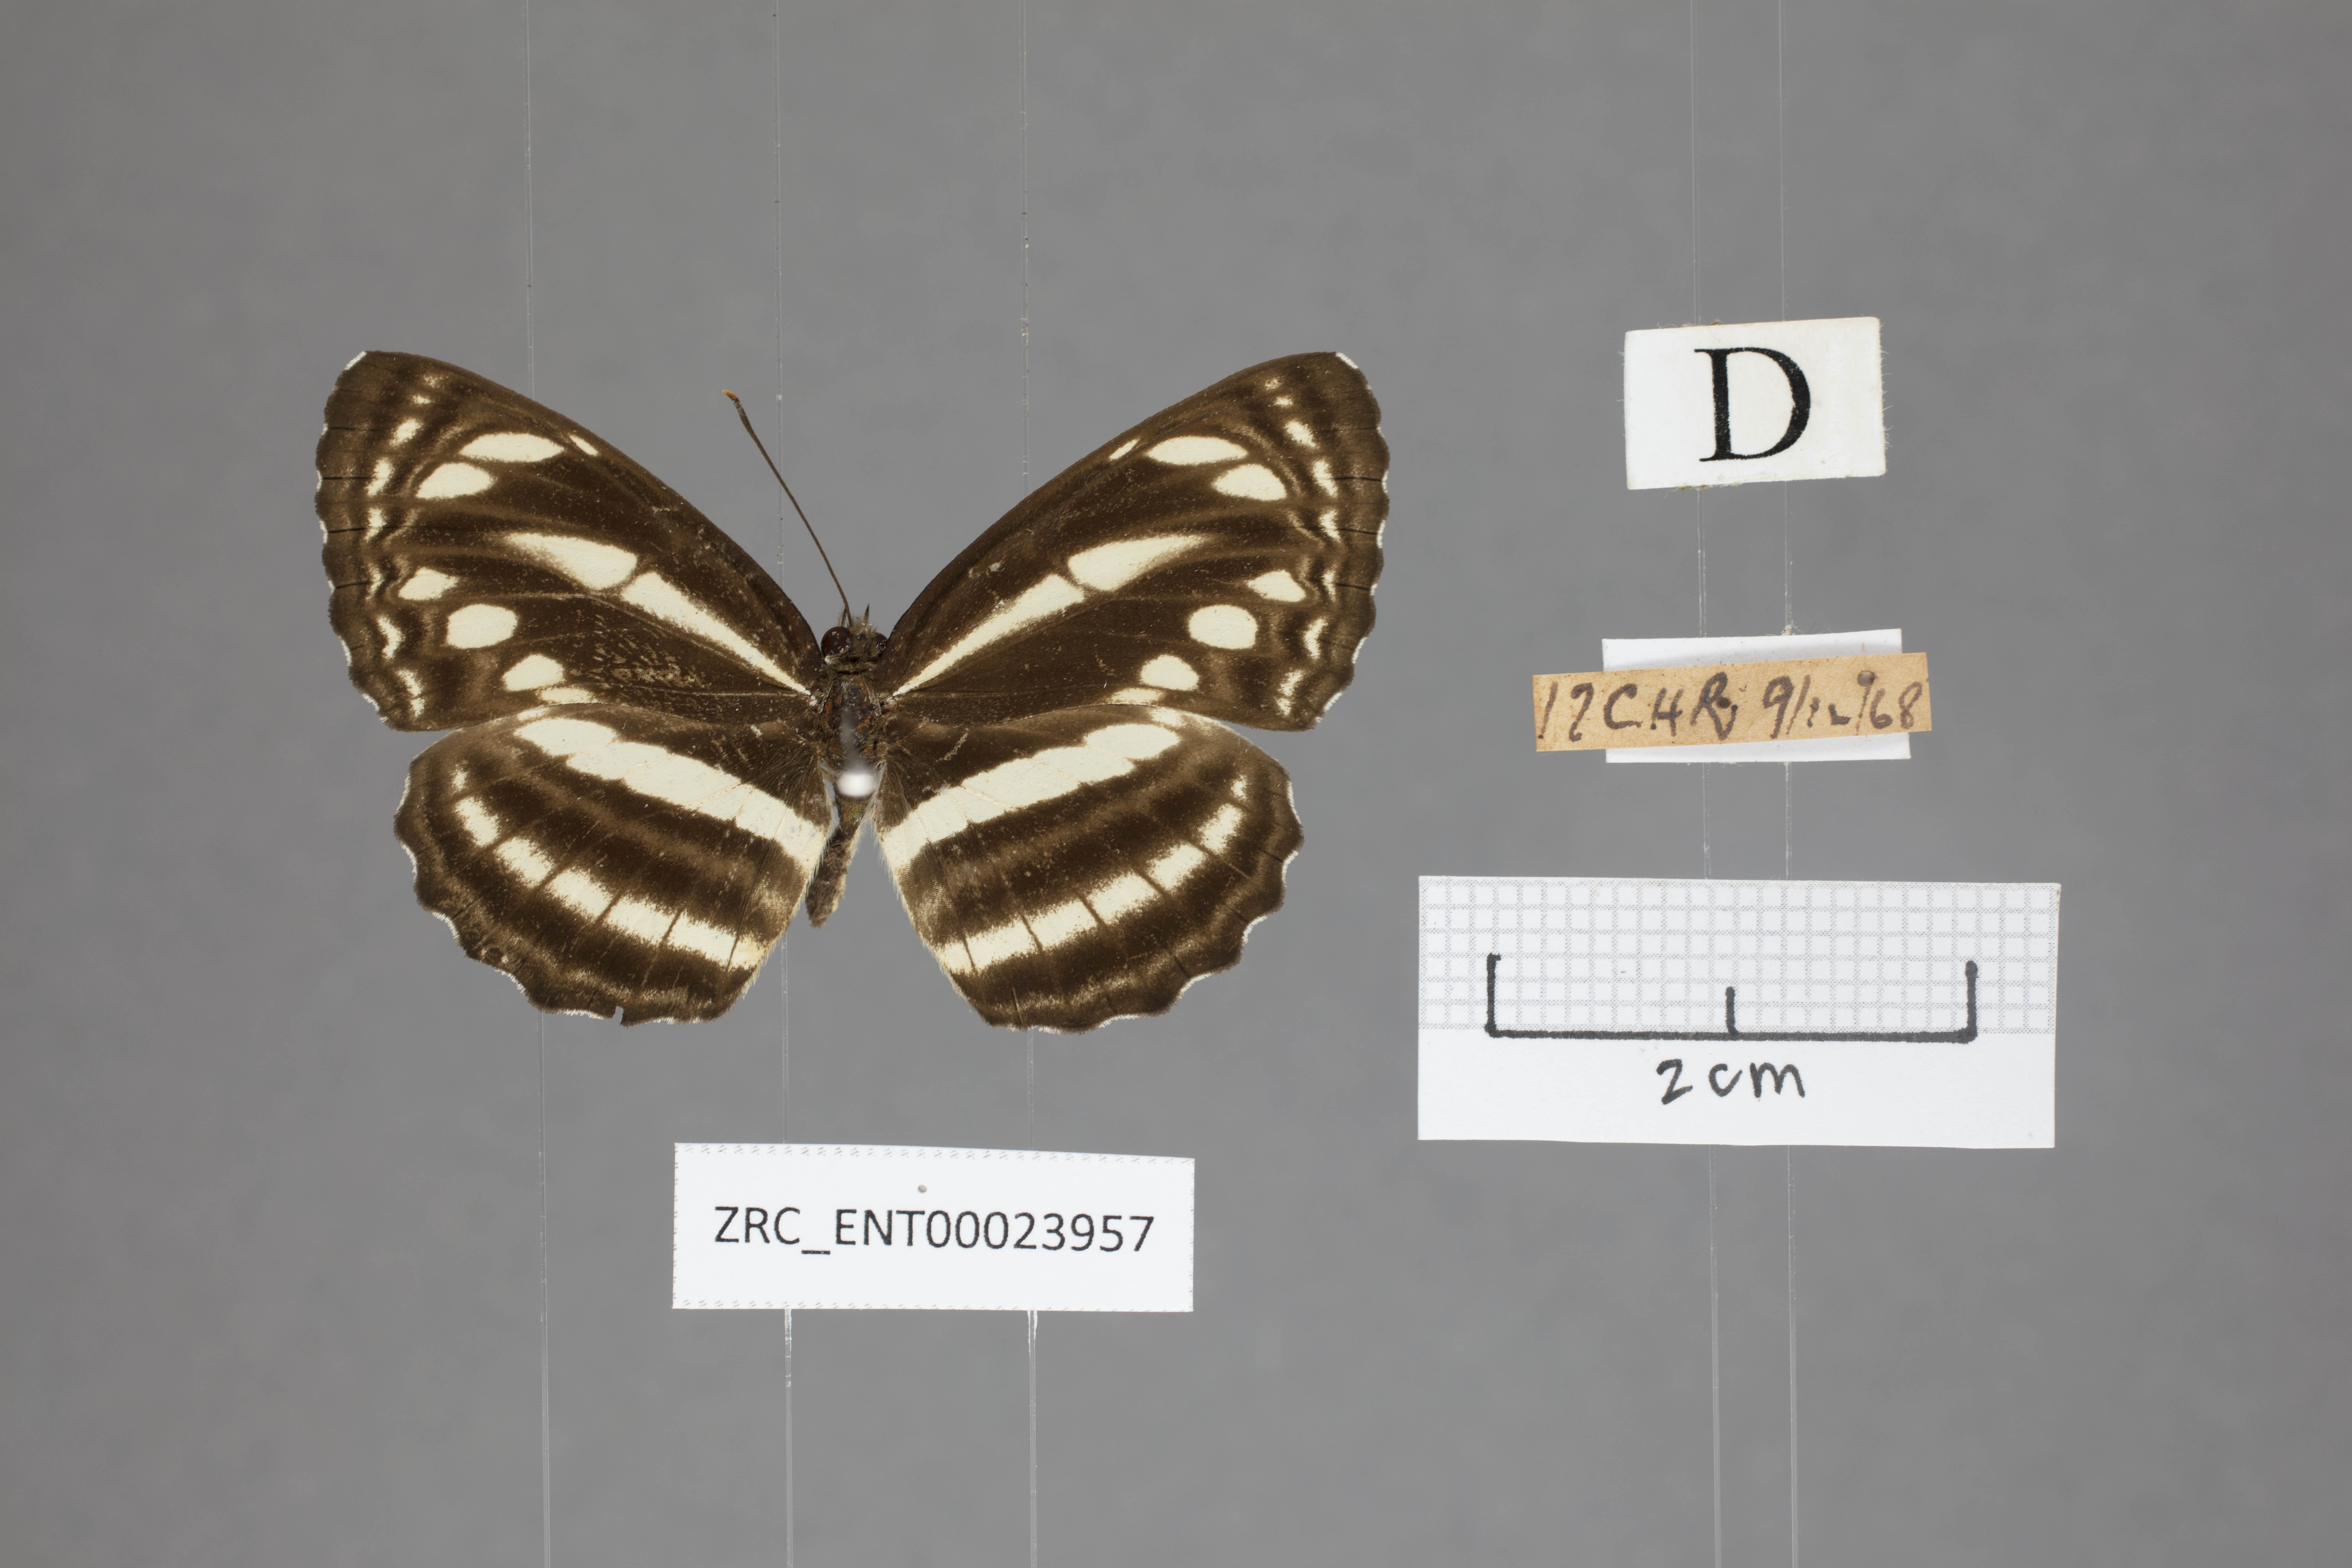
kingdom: Animalia
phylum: Arthropoda
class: Insecta
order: Lepidoptera
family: Nymphalidae
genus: Neptis
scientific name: Neptis clinia
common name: Southern sullied sailer
